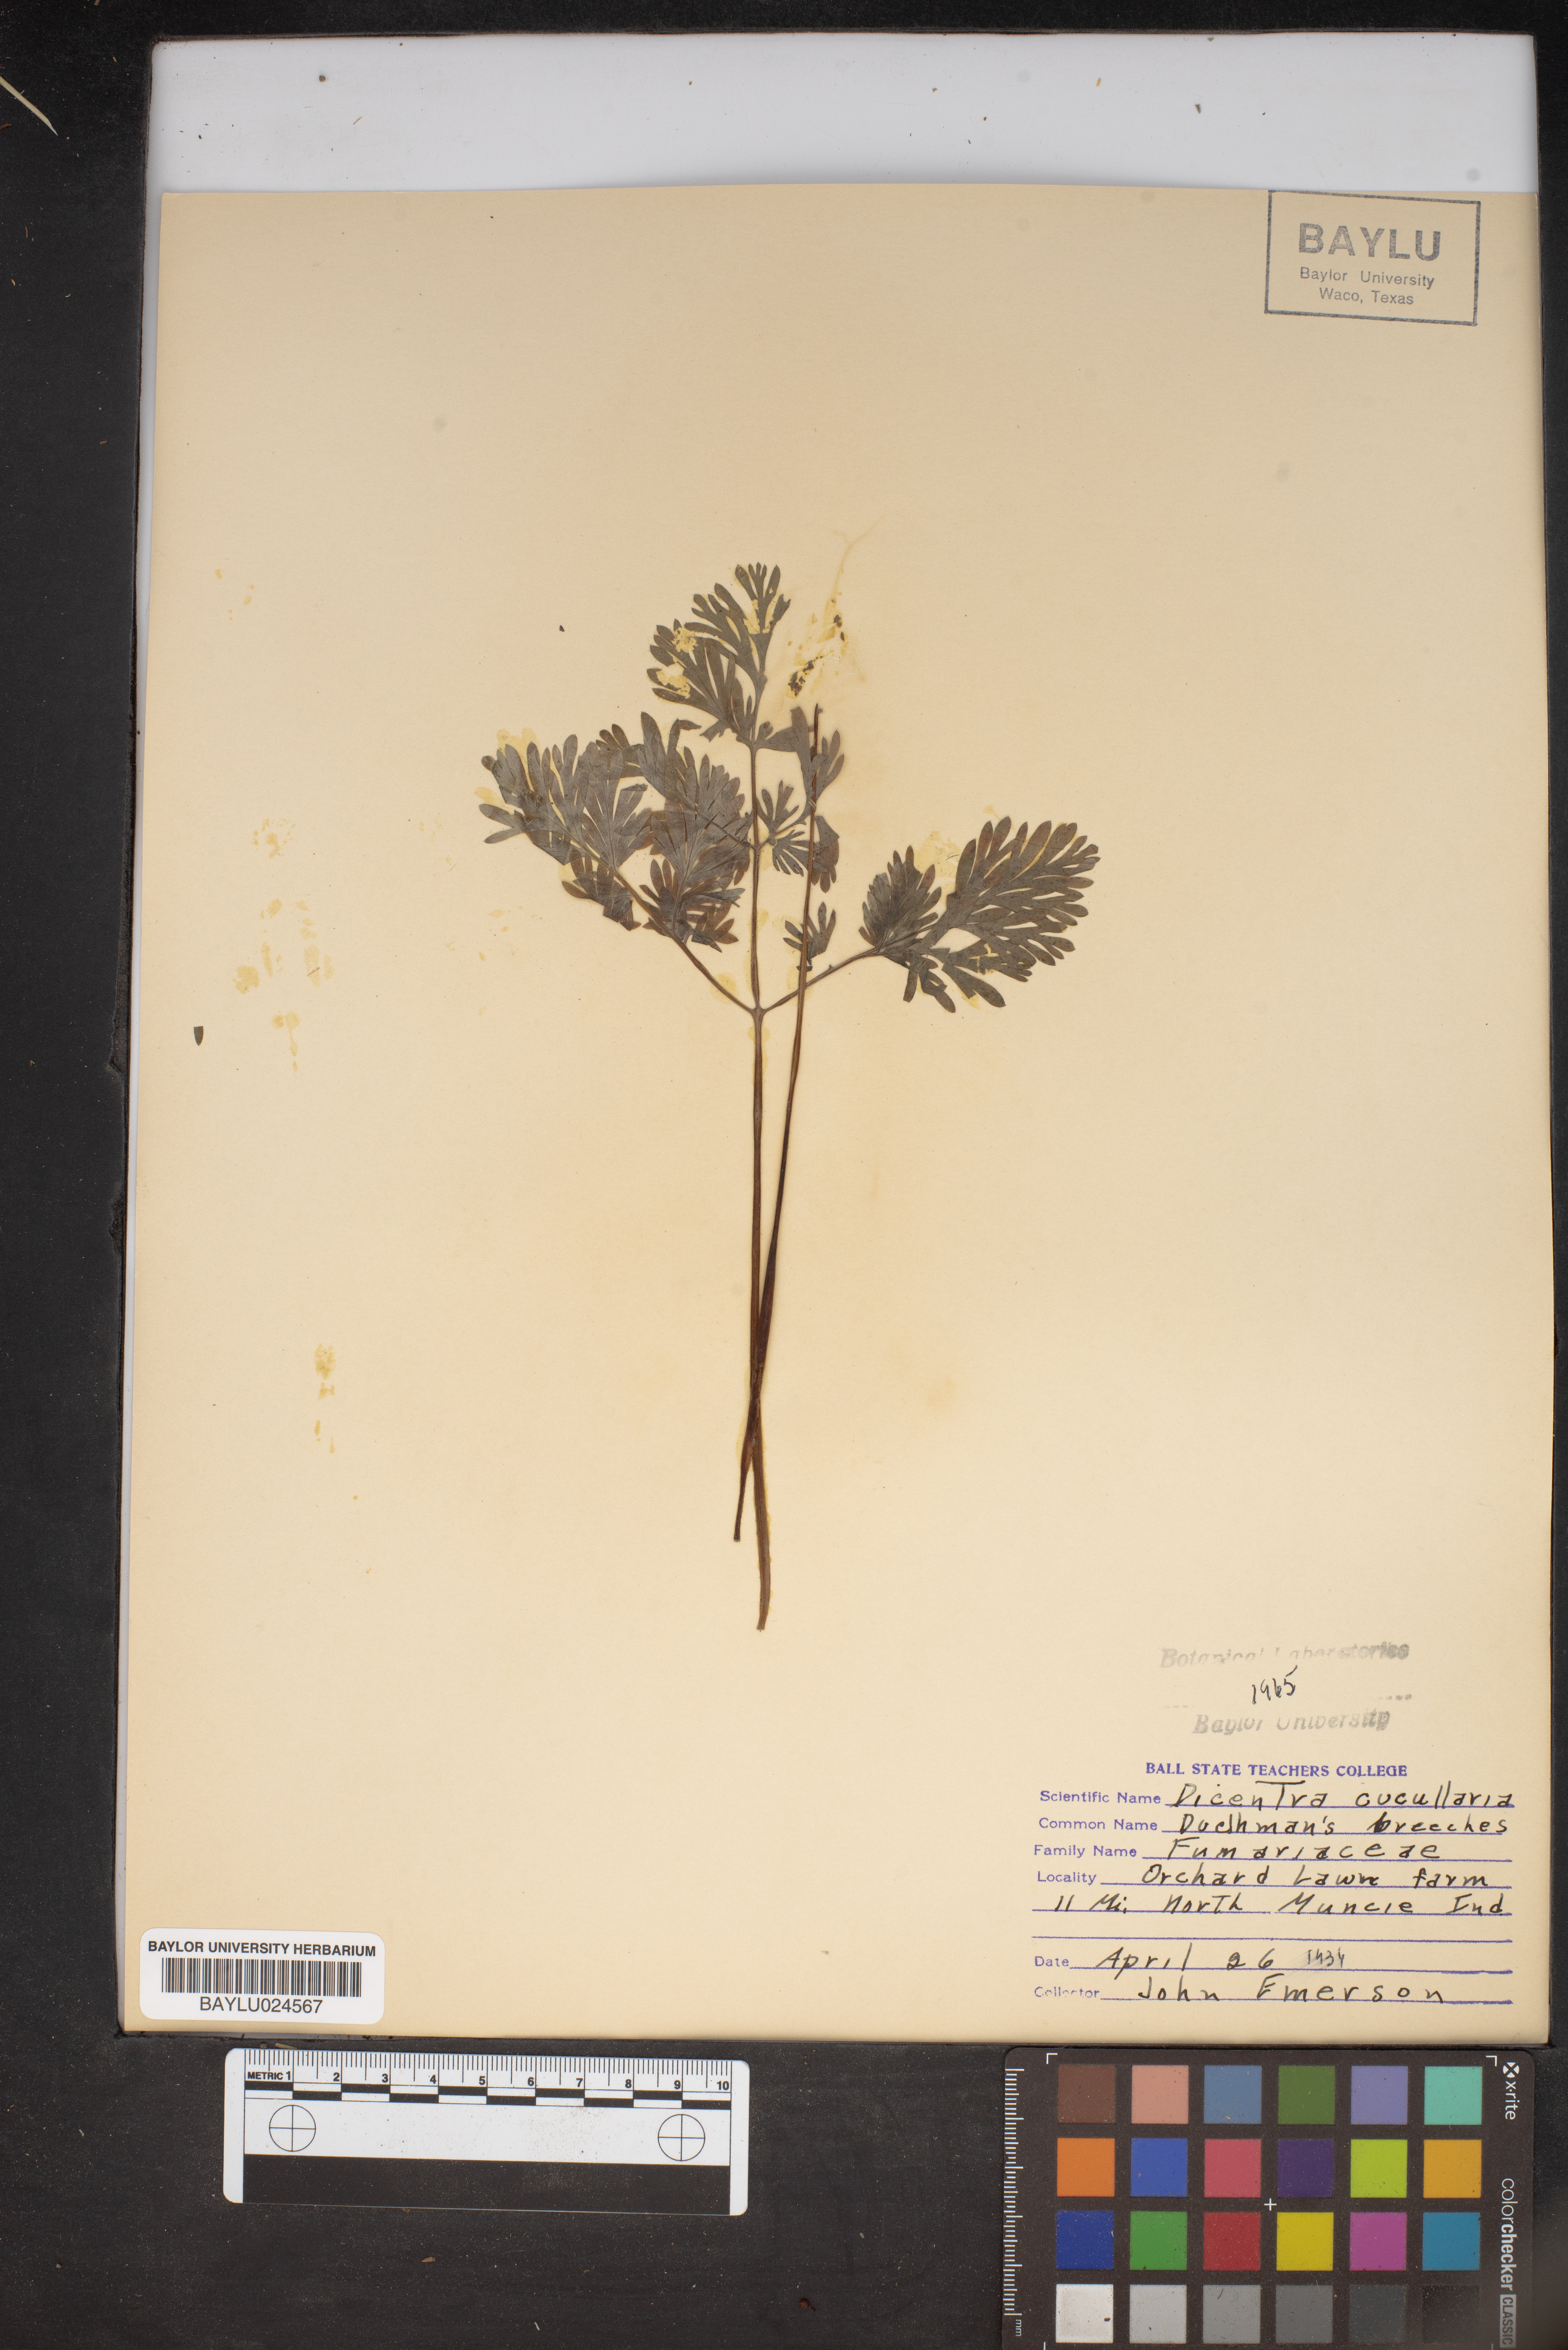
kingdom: Plantae
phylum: Tracheophyta
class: Magnoliopsida
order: Ranunculales
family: Papaveraceae
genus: Dicentra
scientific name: Dicentra cucullaria
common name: Dutchman's breeches
